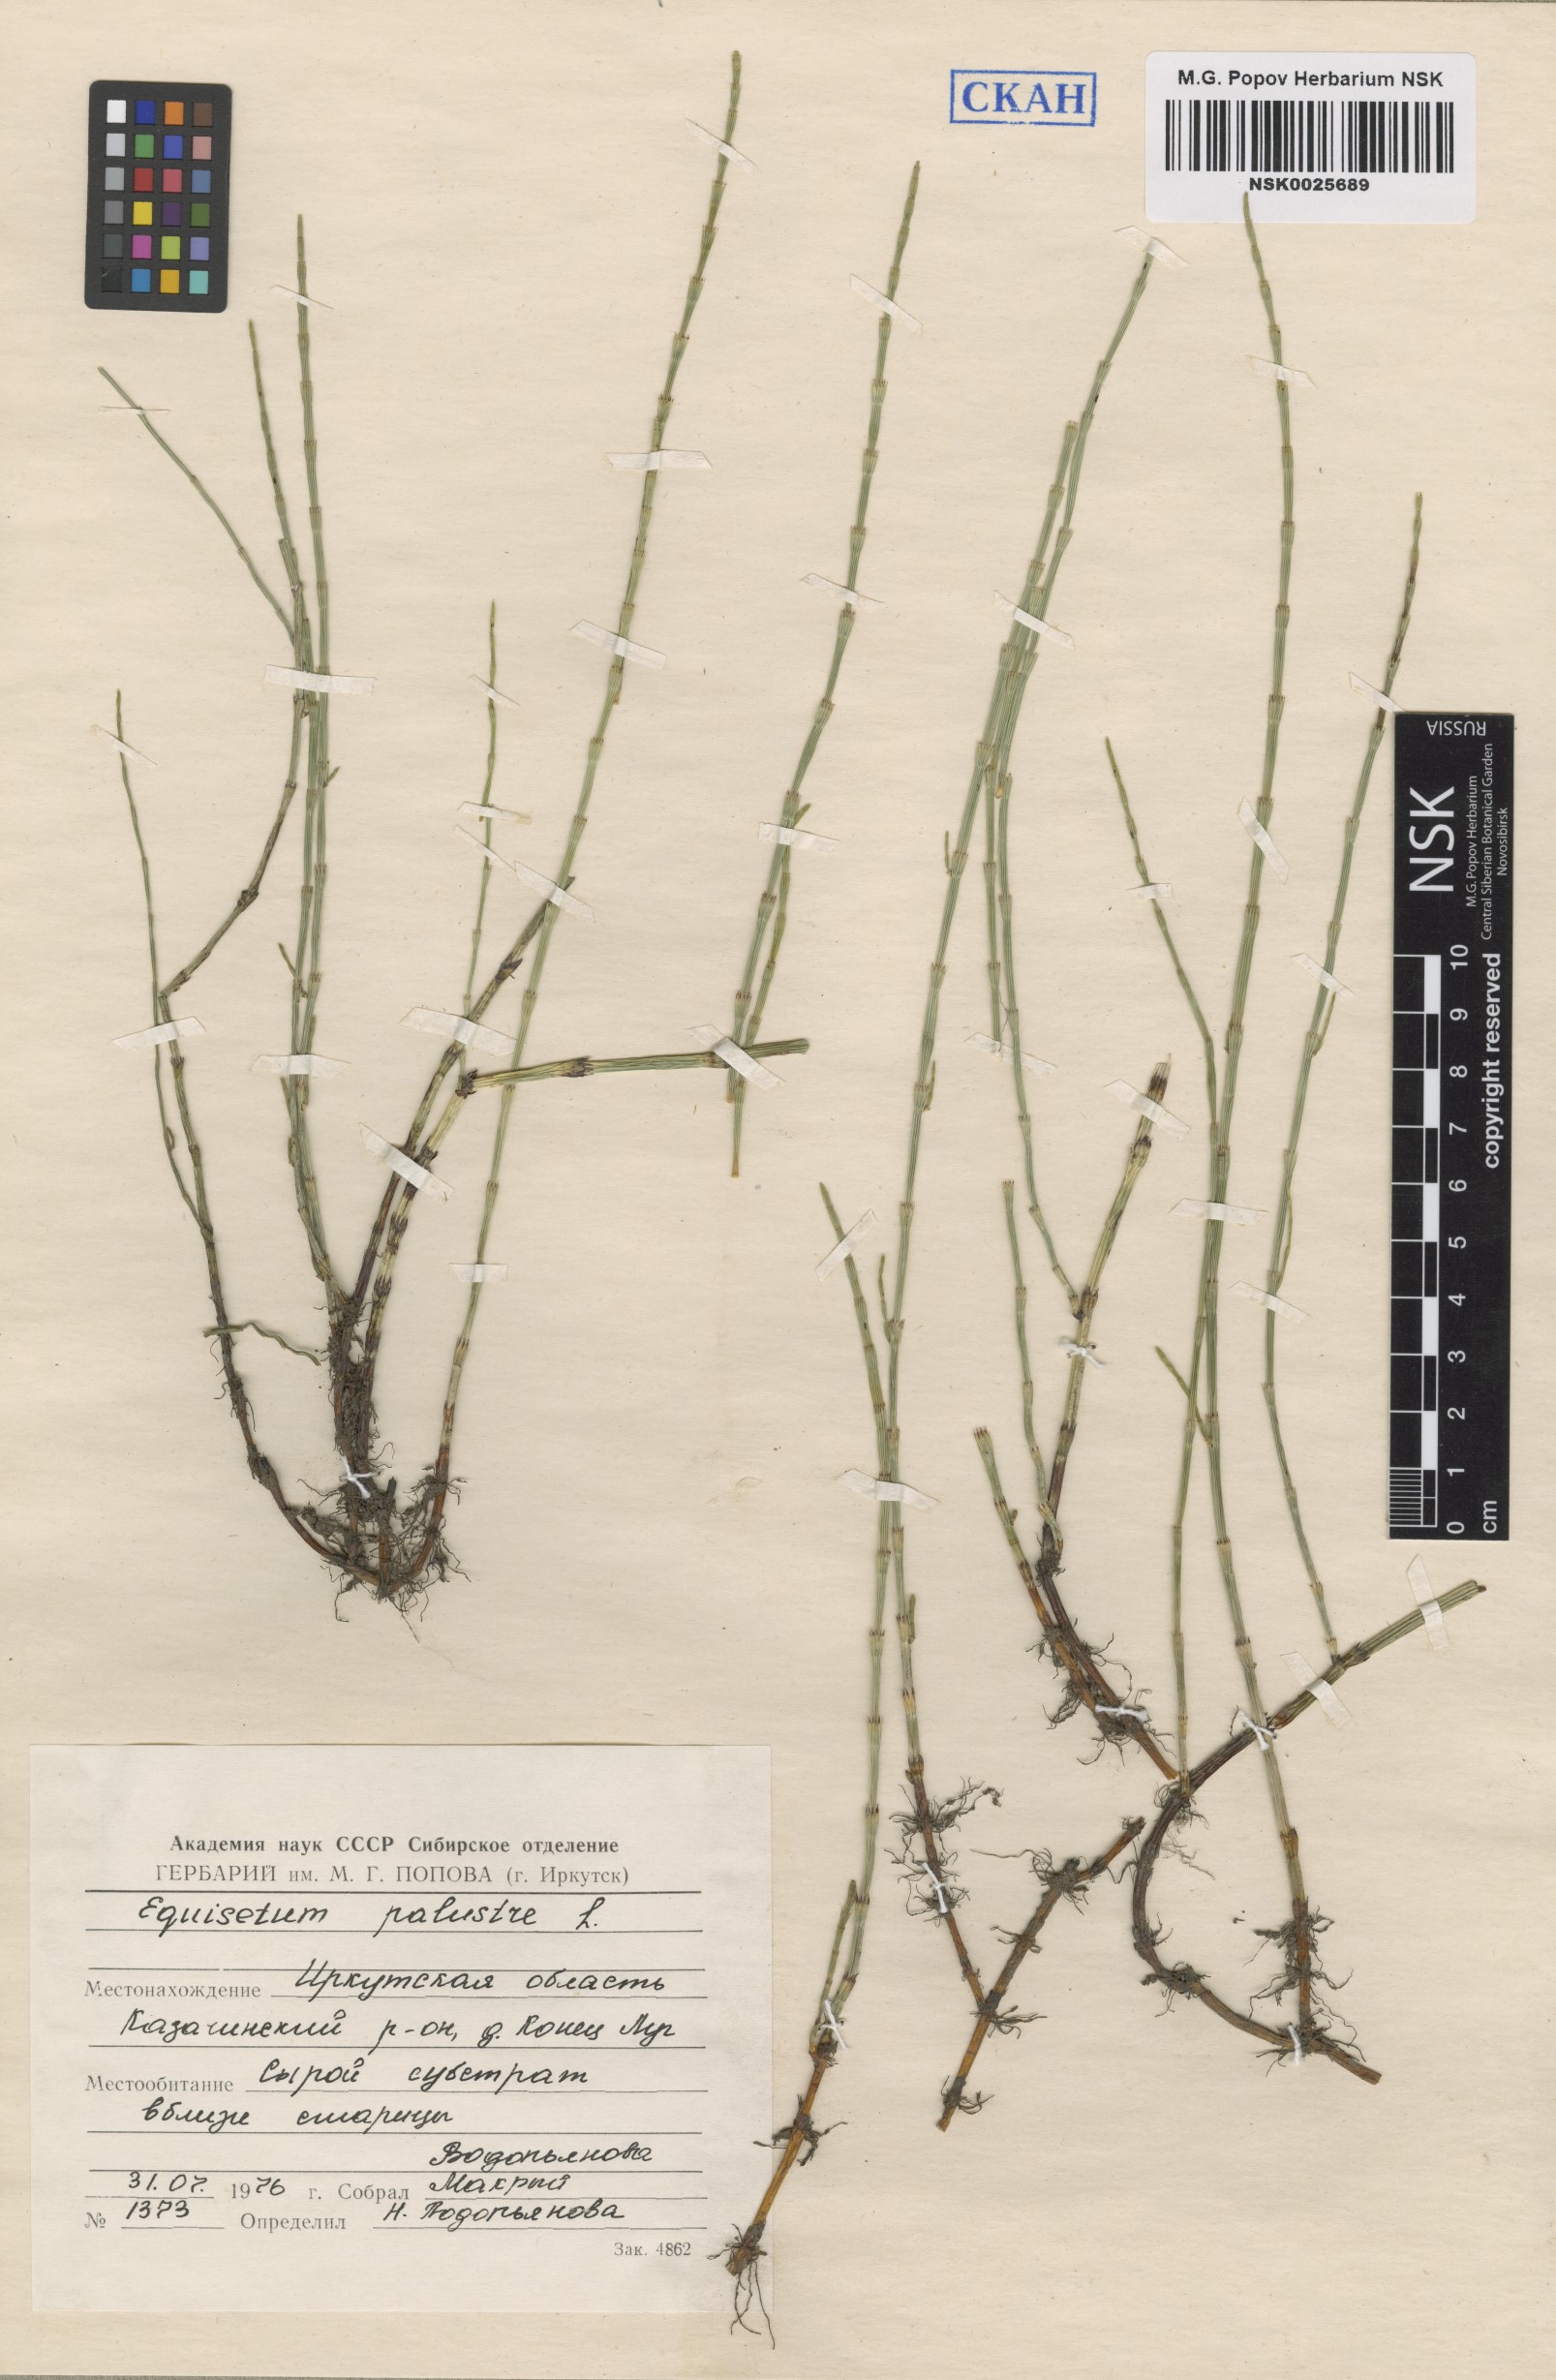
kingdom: Plantae
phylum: Tracheophyta
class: Polypodiopsida
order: Equisetales
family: Equisetaceae
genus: Equisetum
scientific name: Equisetum palustre
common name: Marsh horsetail
